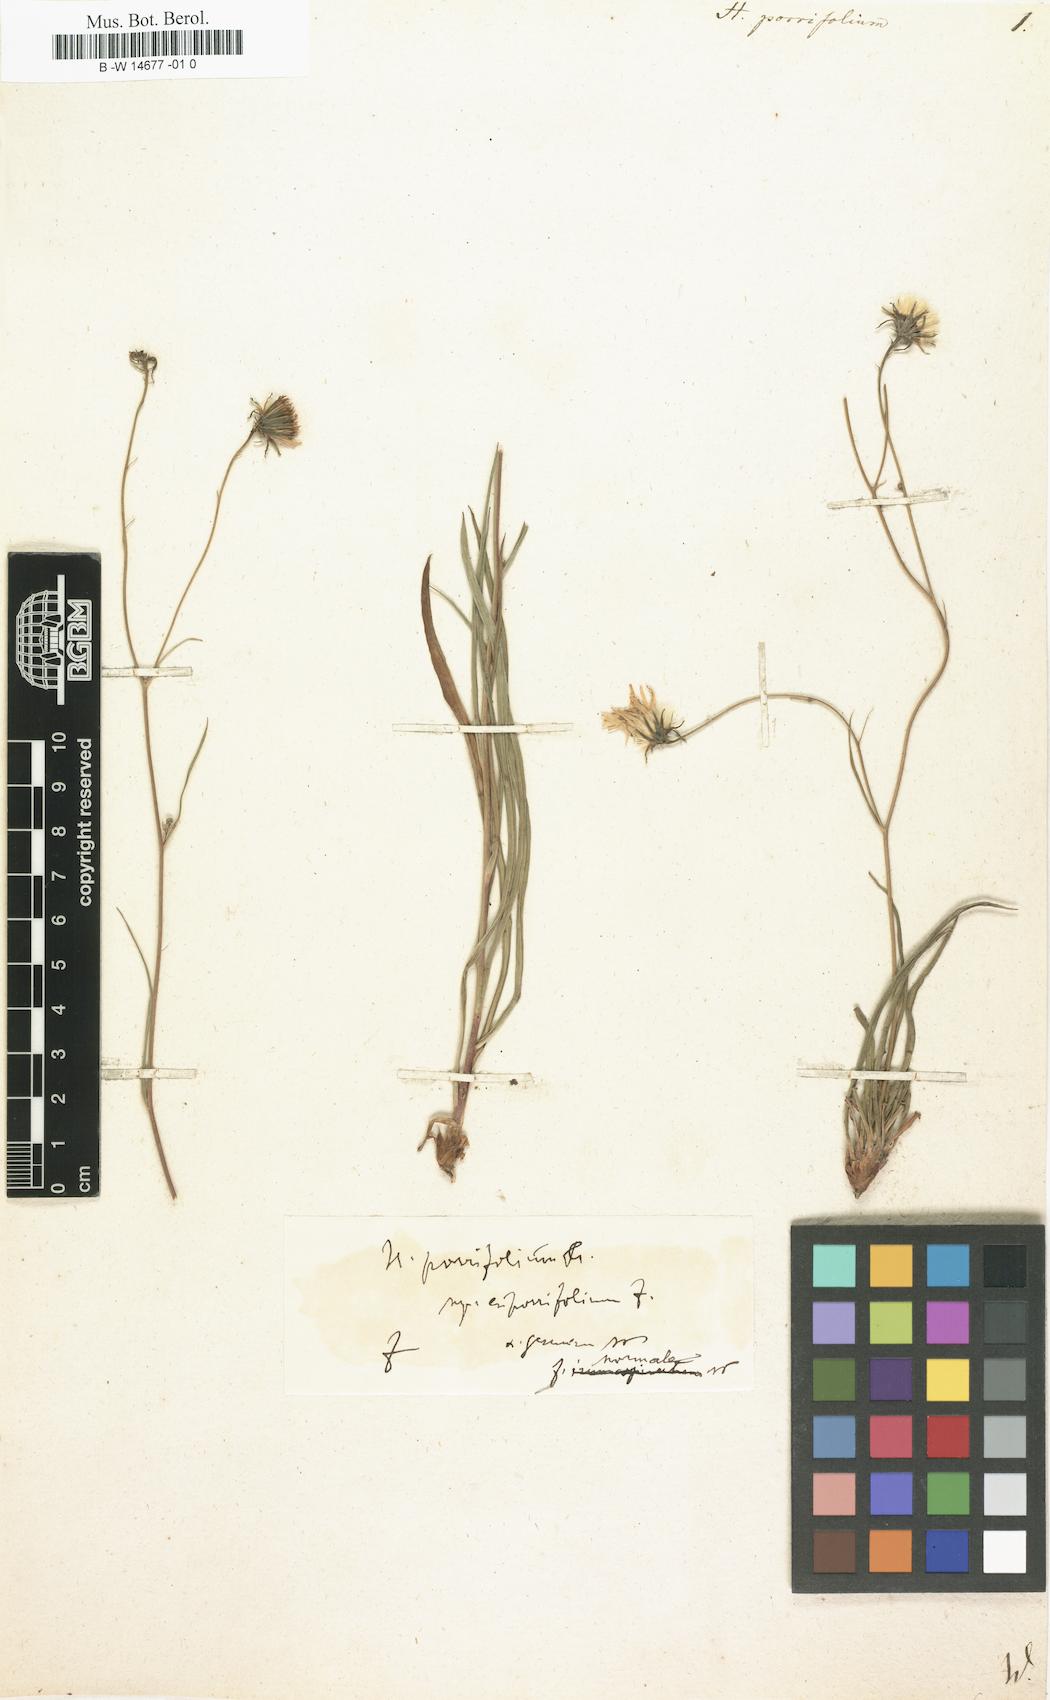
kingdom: Plantae
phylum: Tracheophyta
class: Magnoliopsida
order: Asterales
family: Asteraceae
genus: Hieracium
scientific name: Hieracium porrifolium
